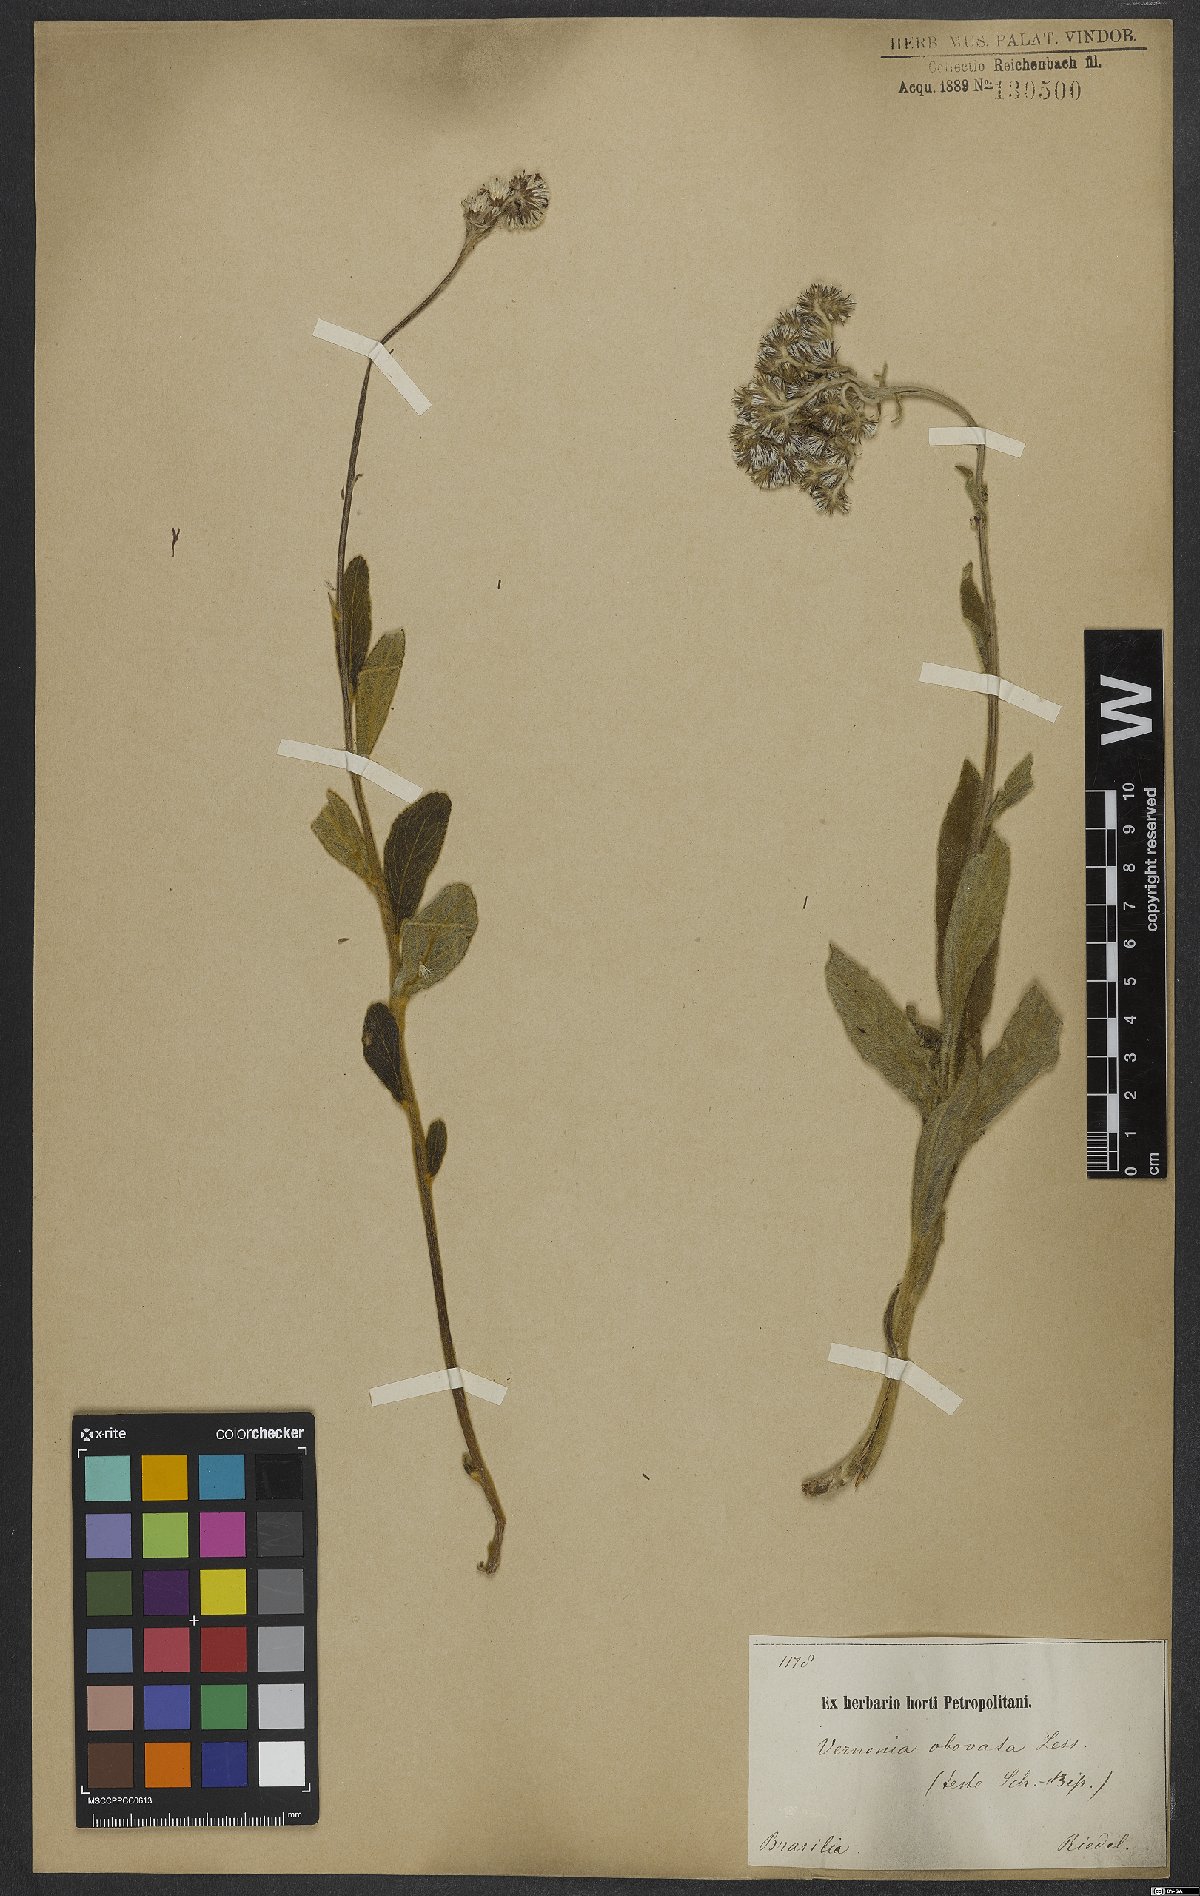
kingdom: Plantae
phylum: Tracheophyta
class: Magnoliopsida
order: Asterales
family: Asteraceae
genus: Chrysolaena
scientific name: Chrysolaena obovata
